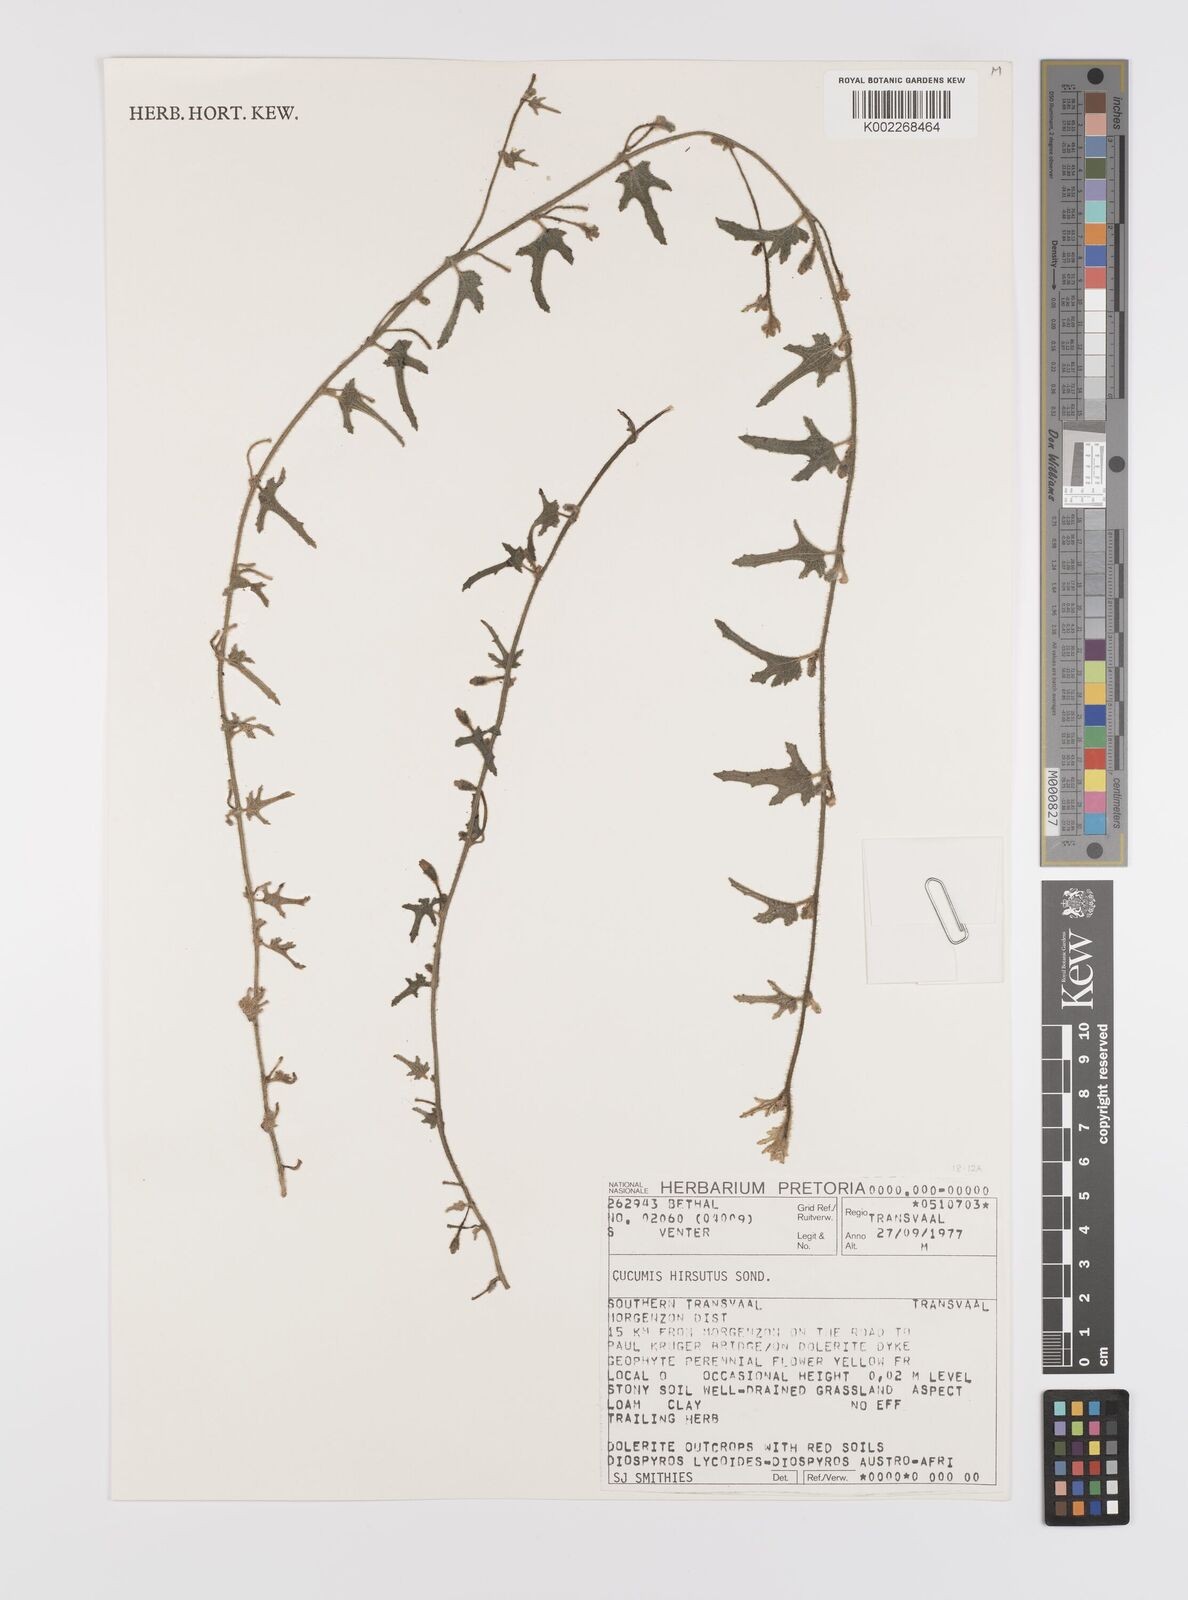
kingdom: Plantae
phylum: Tracheophyta
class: Magnoliopsida
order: Cucurbitales
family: Cucurbitaceae
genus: Cucumis
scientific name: Cucumis hirsutus
